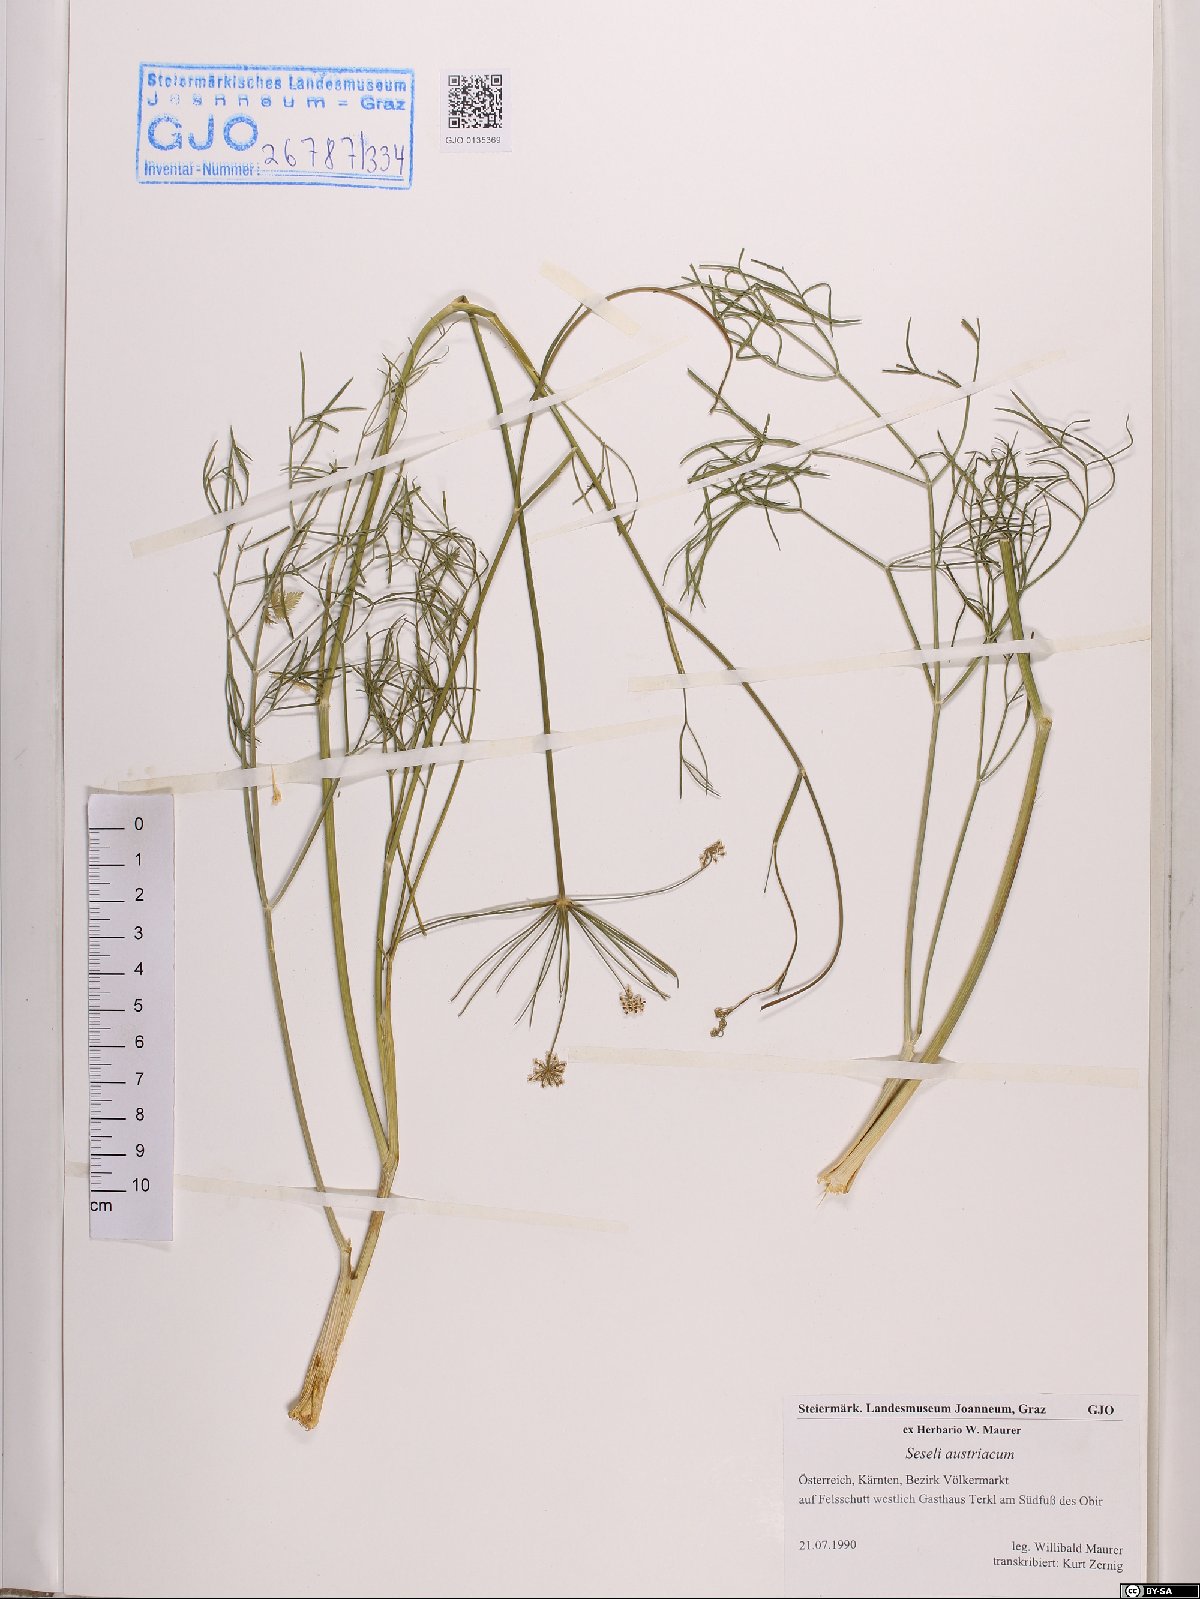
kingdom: Plantae
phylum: Tracheophyta
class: Magnoliopsida
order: Apiales
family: Apiaceae
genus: Seseli
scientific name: Seseli austriacum
